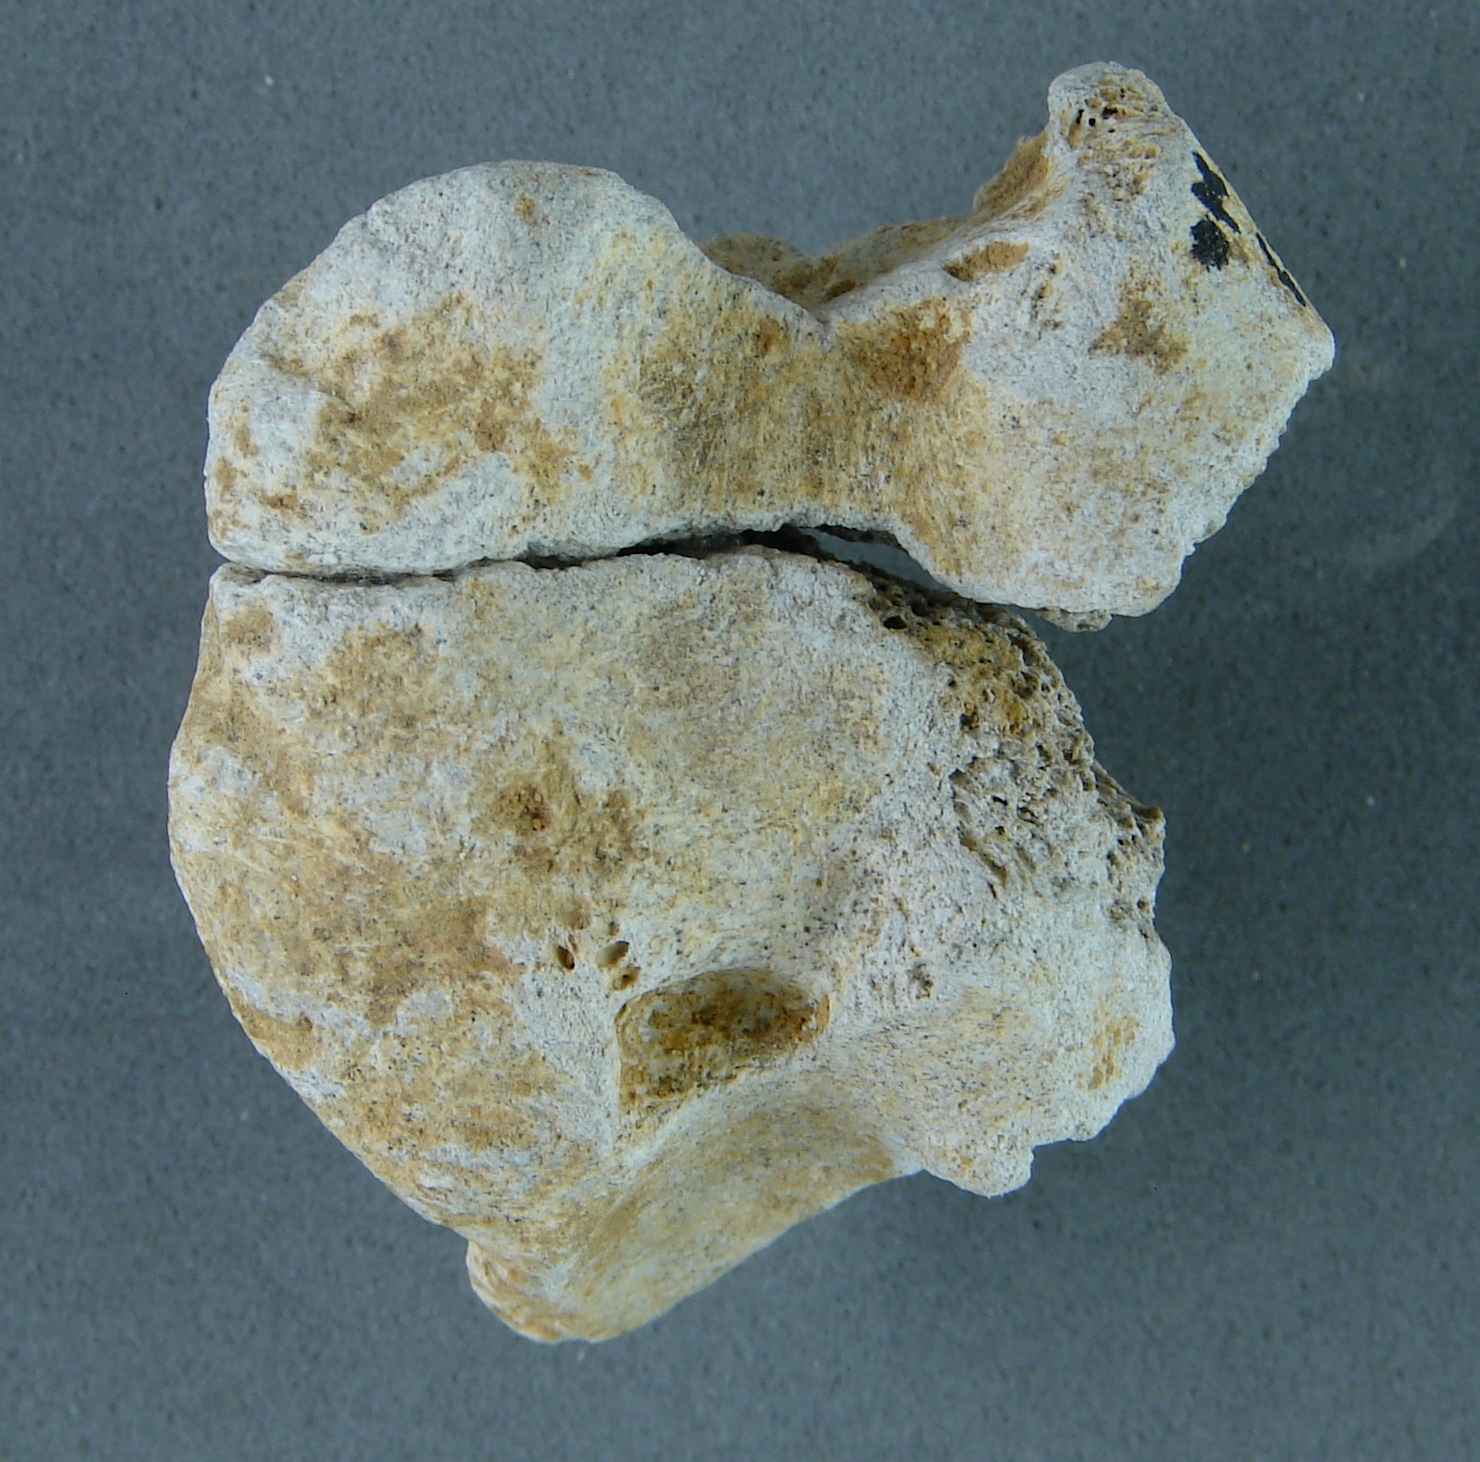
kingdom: Animalia
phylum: Chordata
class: Mammalia
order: Artiodactyla
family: Cervidae
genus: Cervus
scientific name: Cervus elaphus
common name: Red deer
